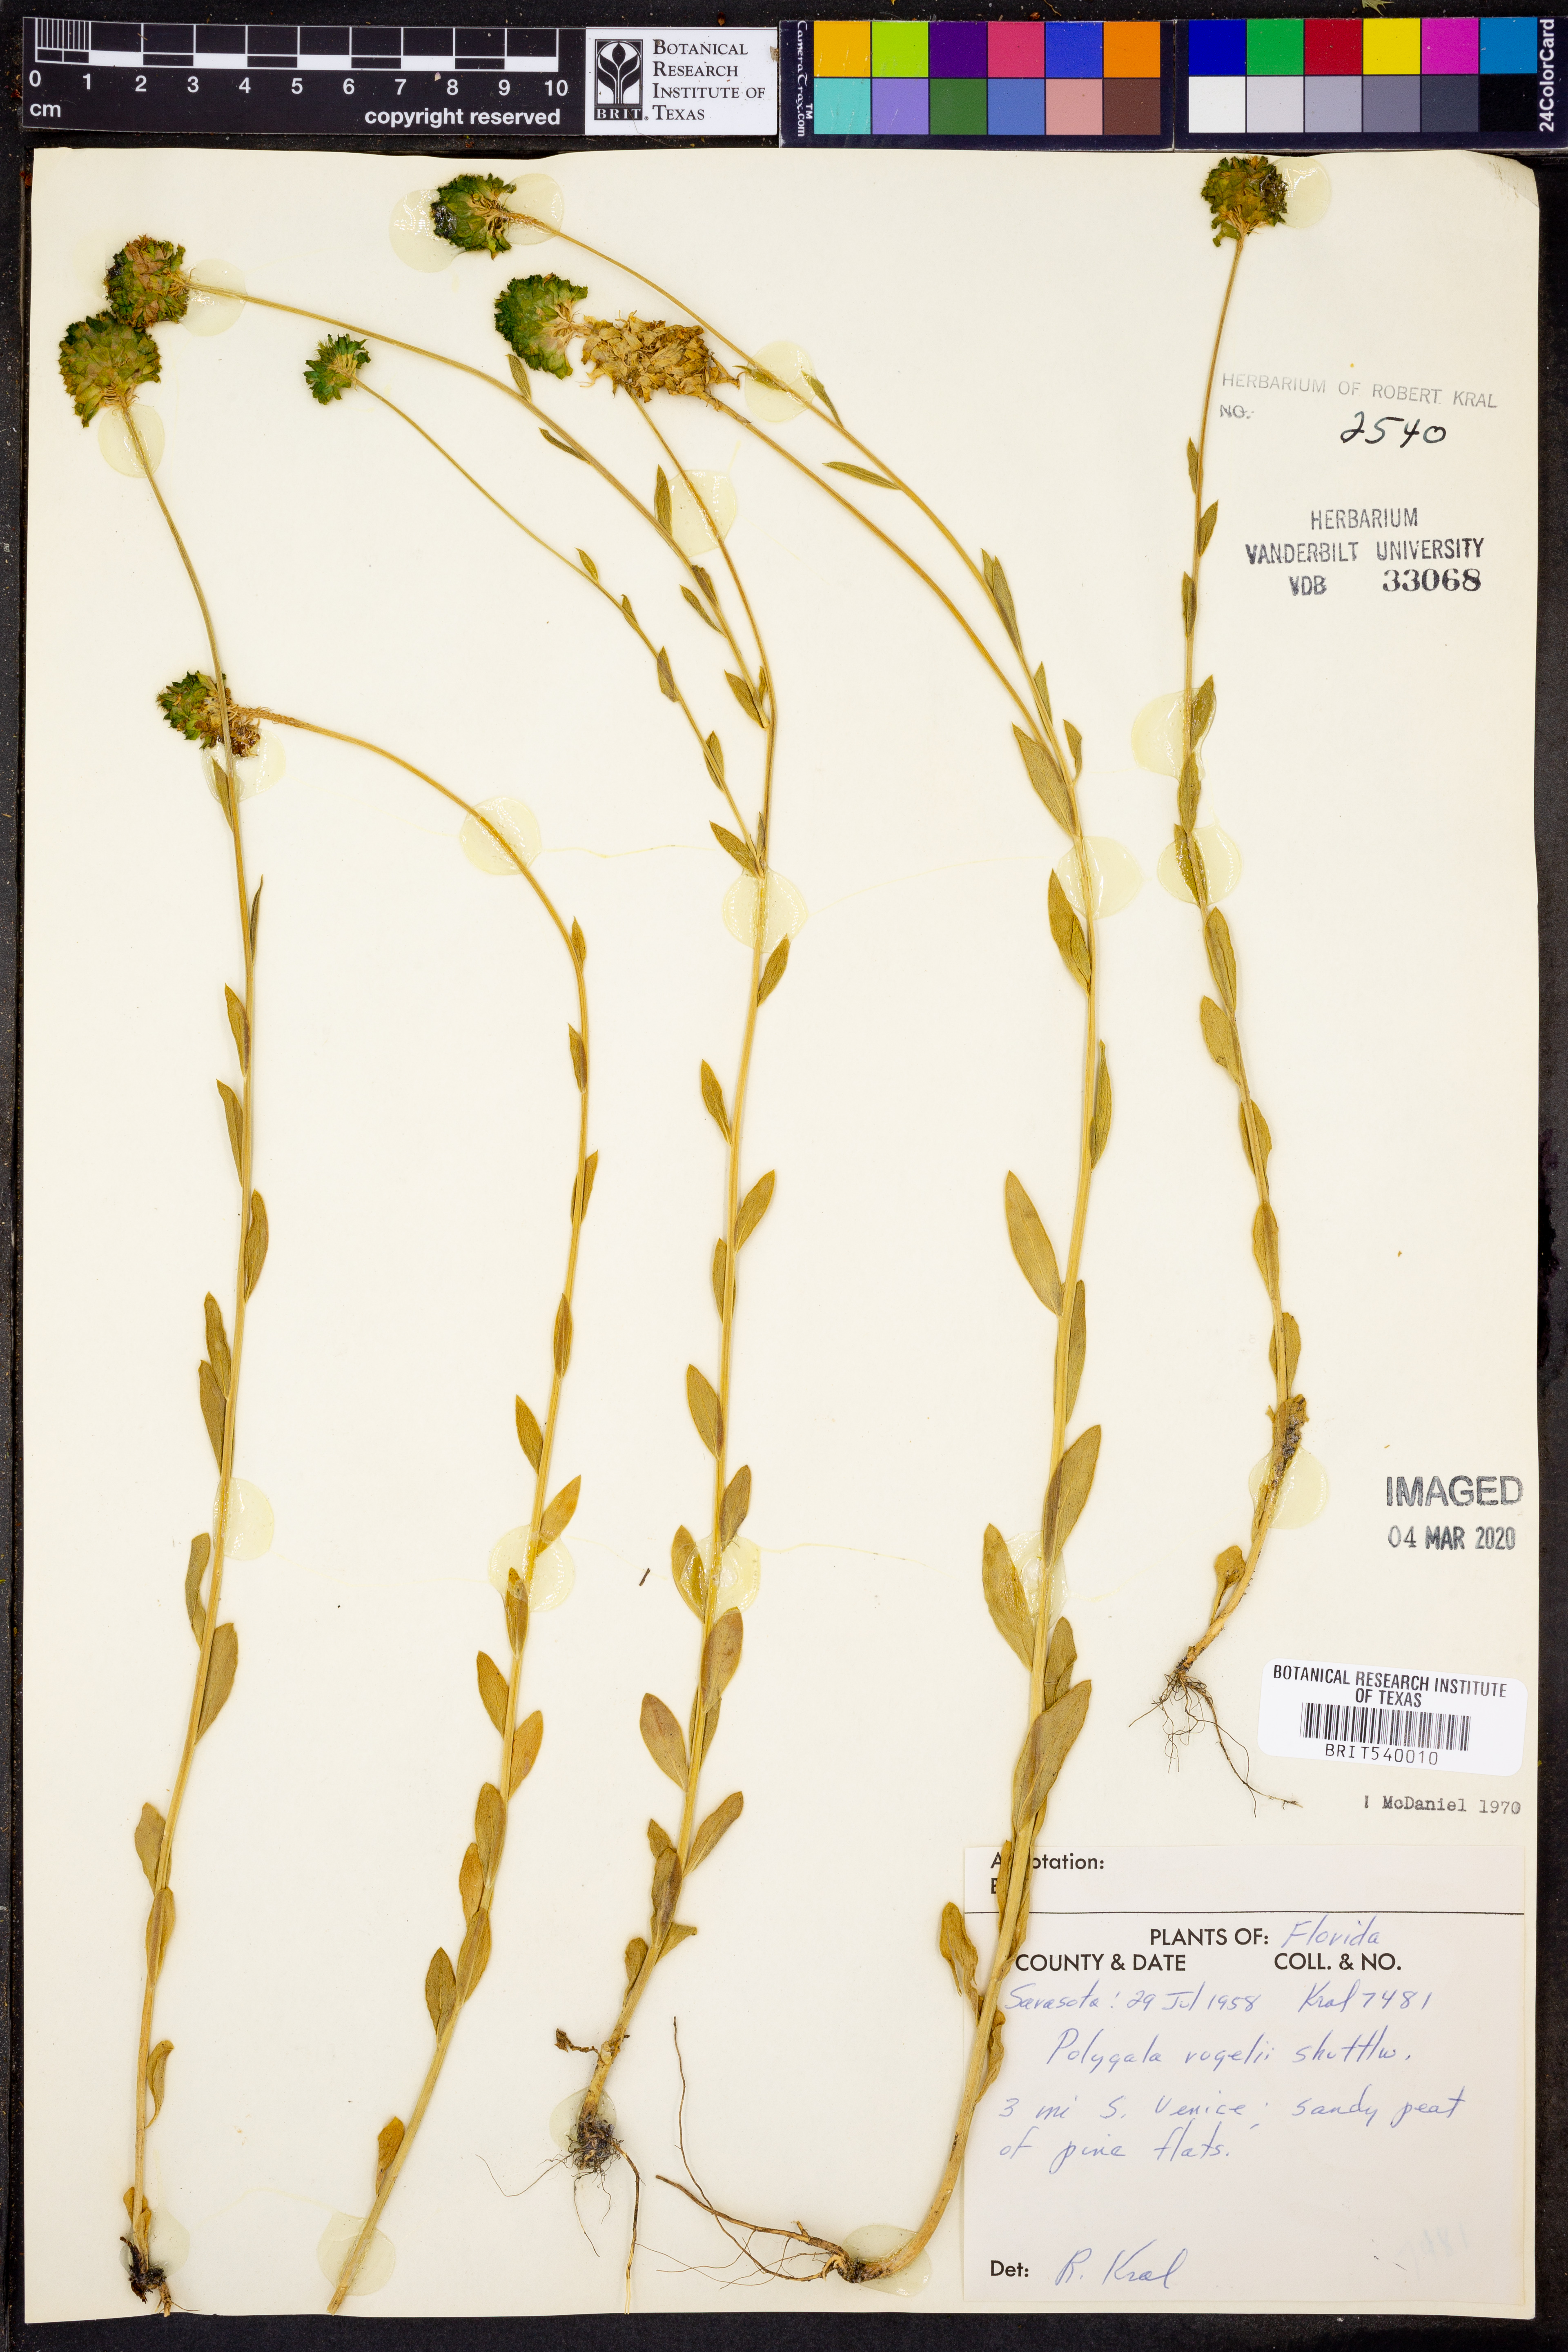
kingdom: Plantae
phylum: Tracheophyta
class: Magnoliopsida
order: Fabales
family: Polygalaceae
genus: Polygala
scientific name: Polygala rugelii
